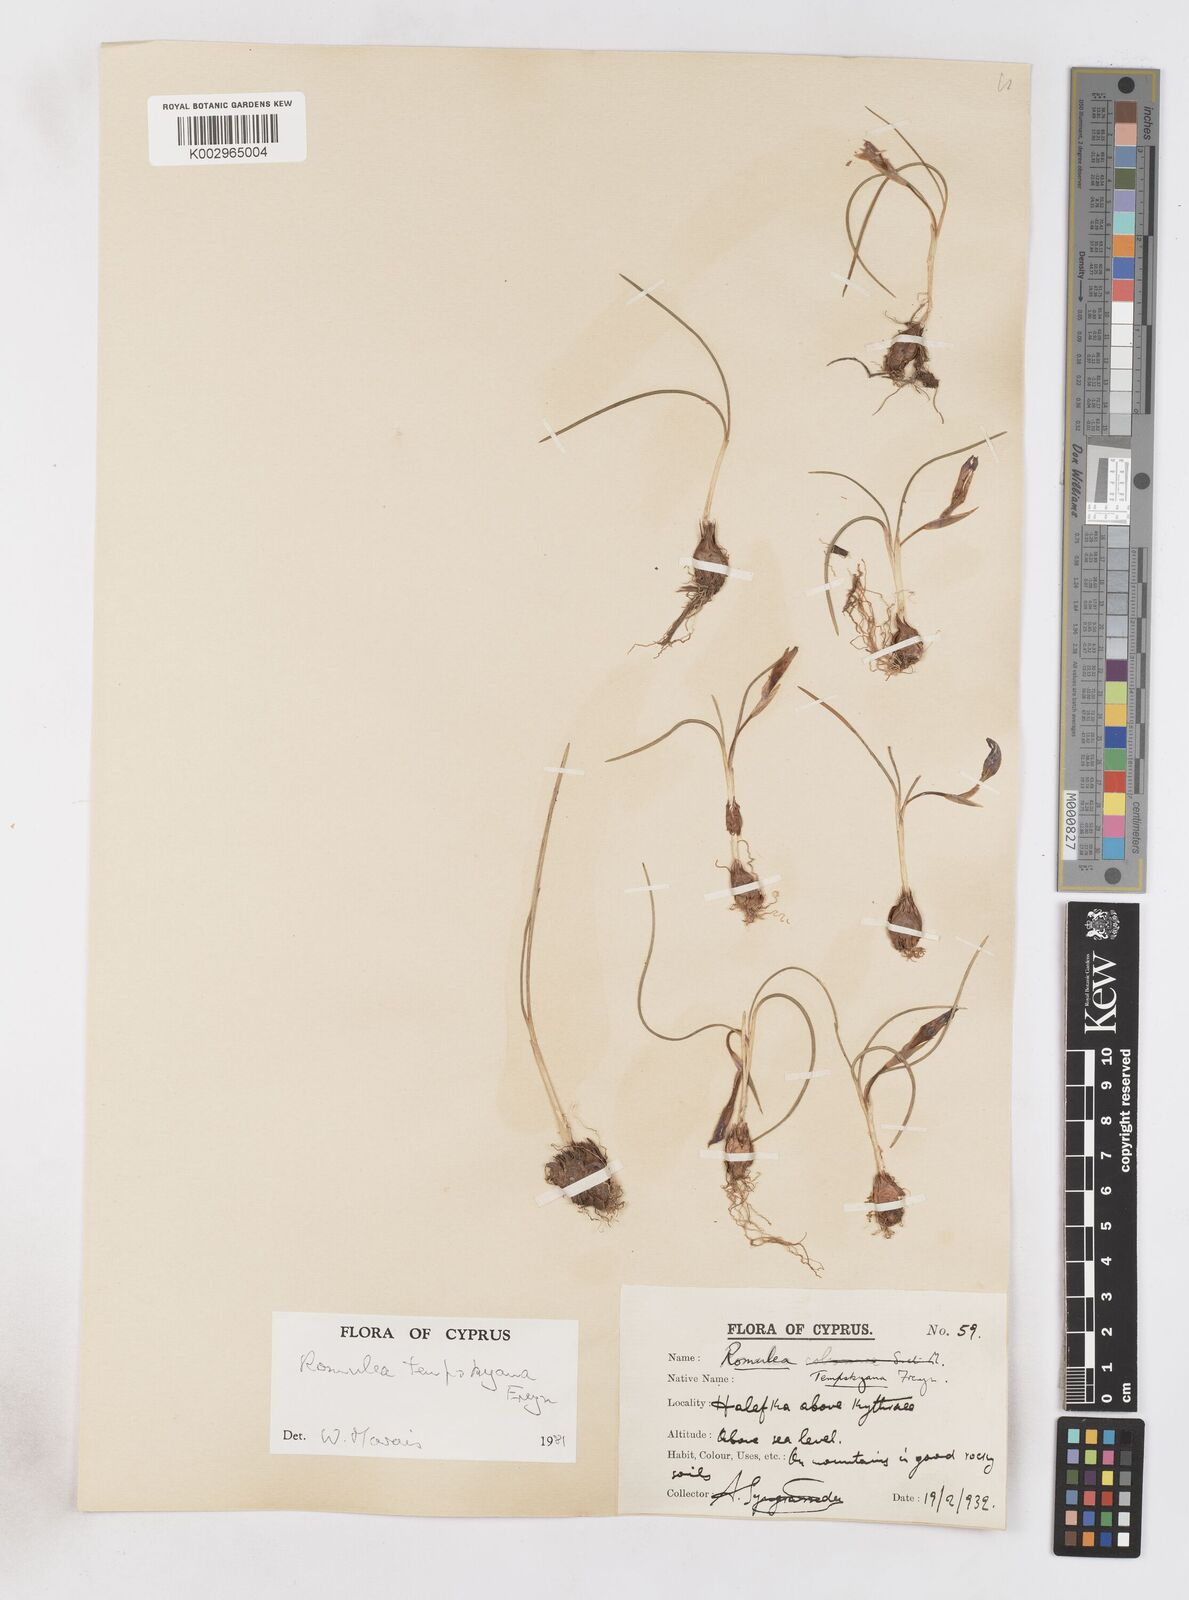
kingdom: Plantae
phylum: Tracheophyta
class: Liliopsida
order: Asparagales
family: Iridaceae
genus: Romulea
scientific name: Romulea tempskyana
